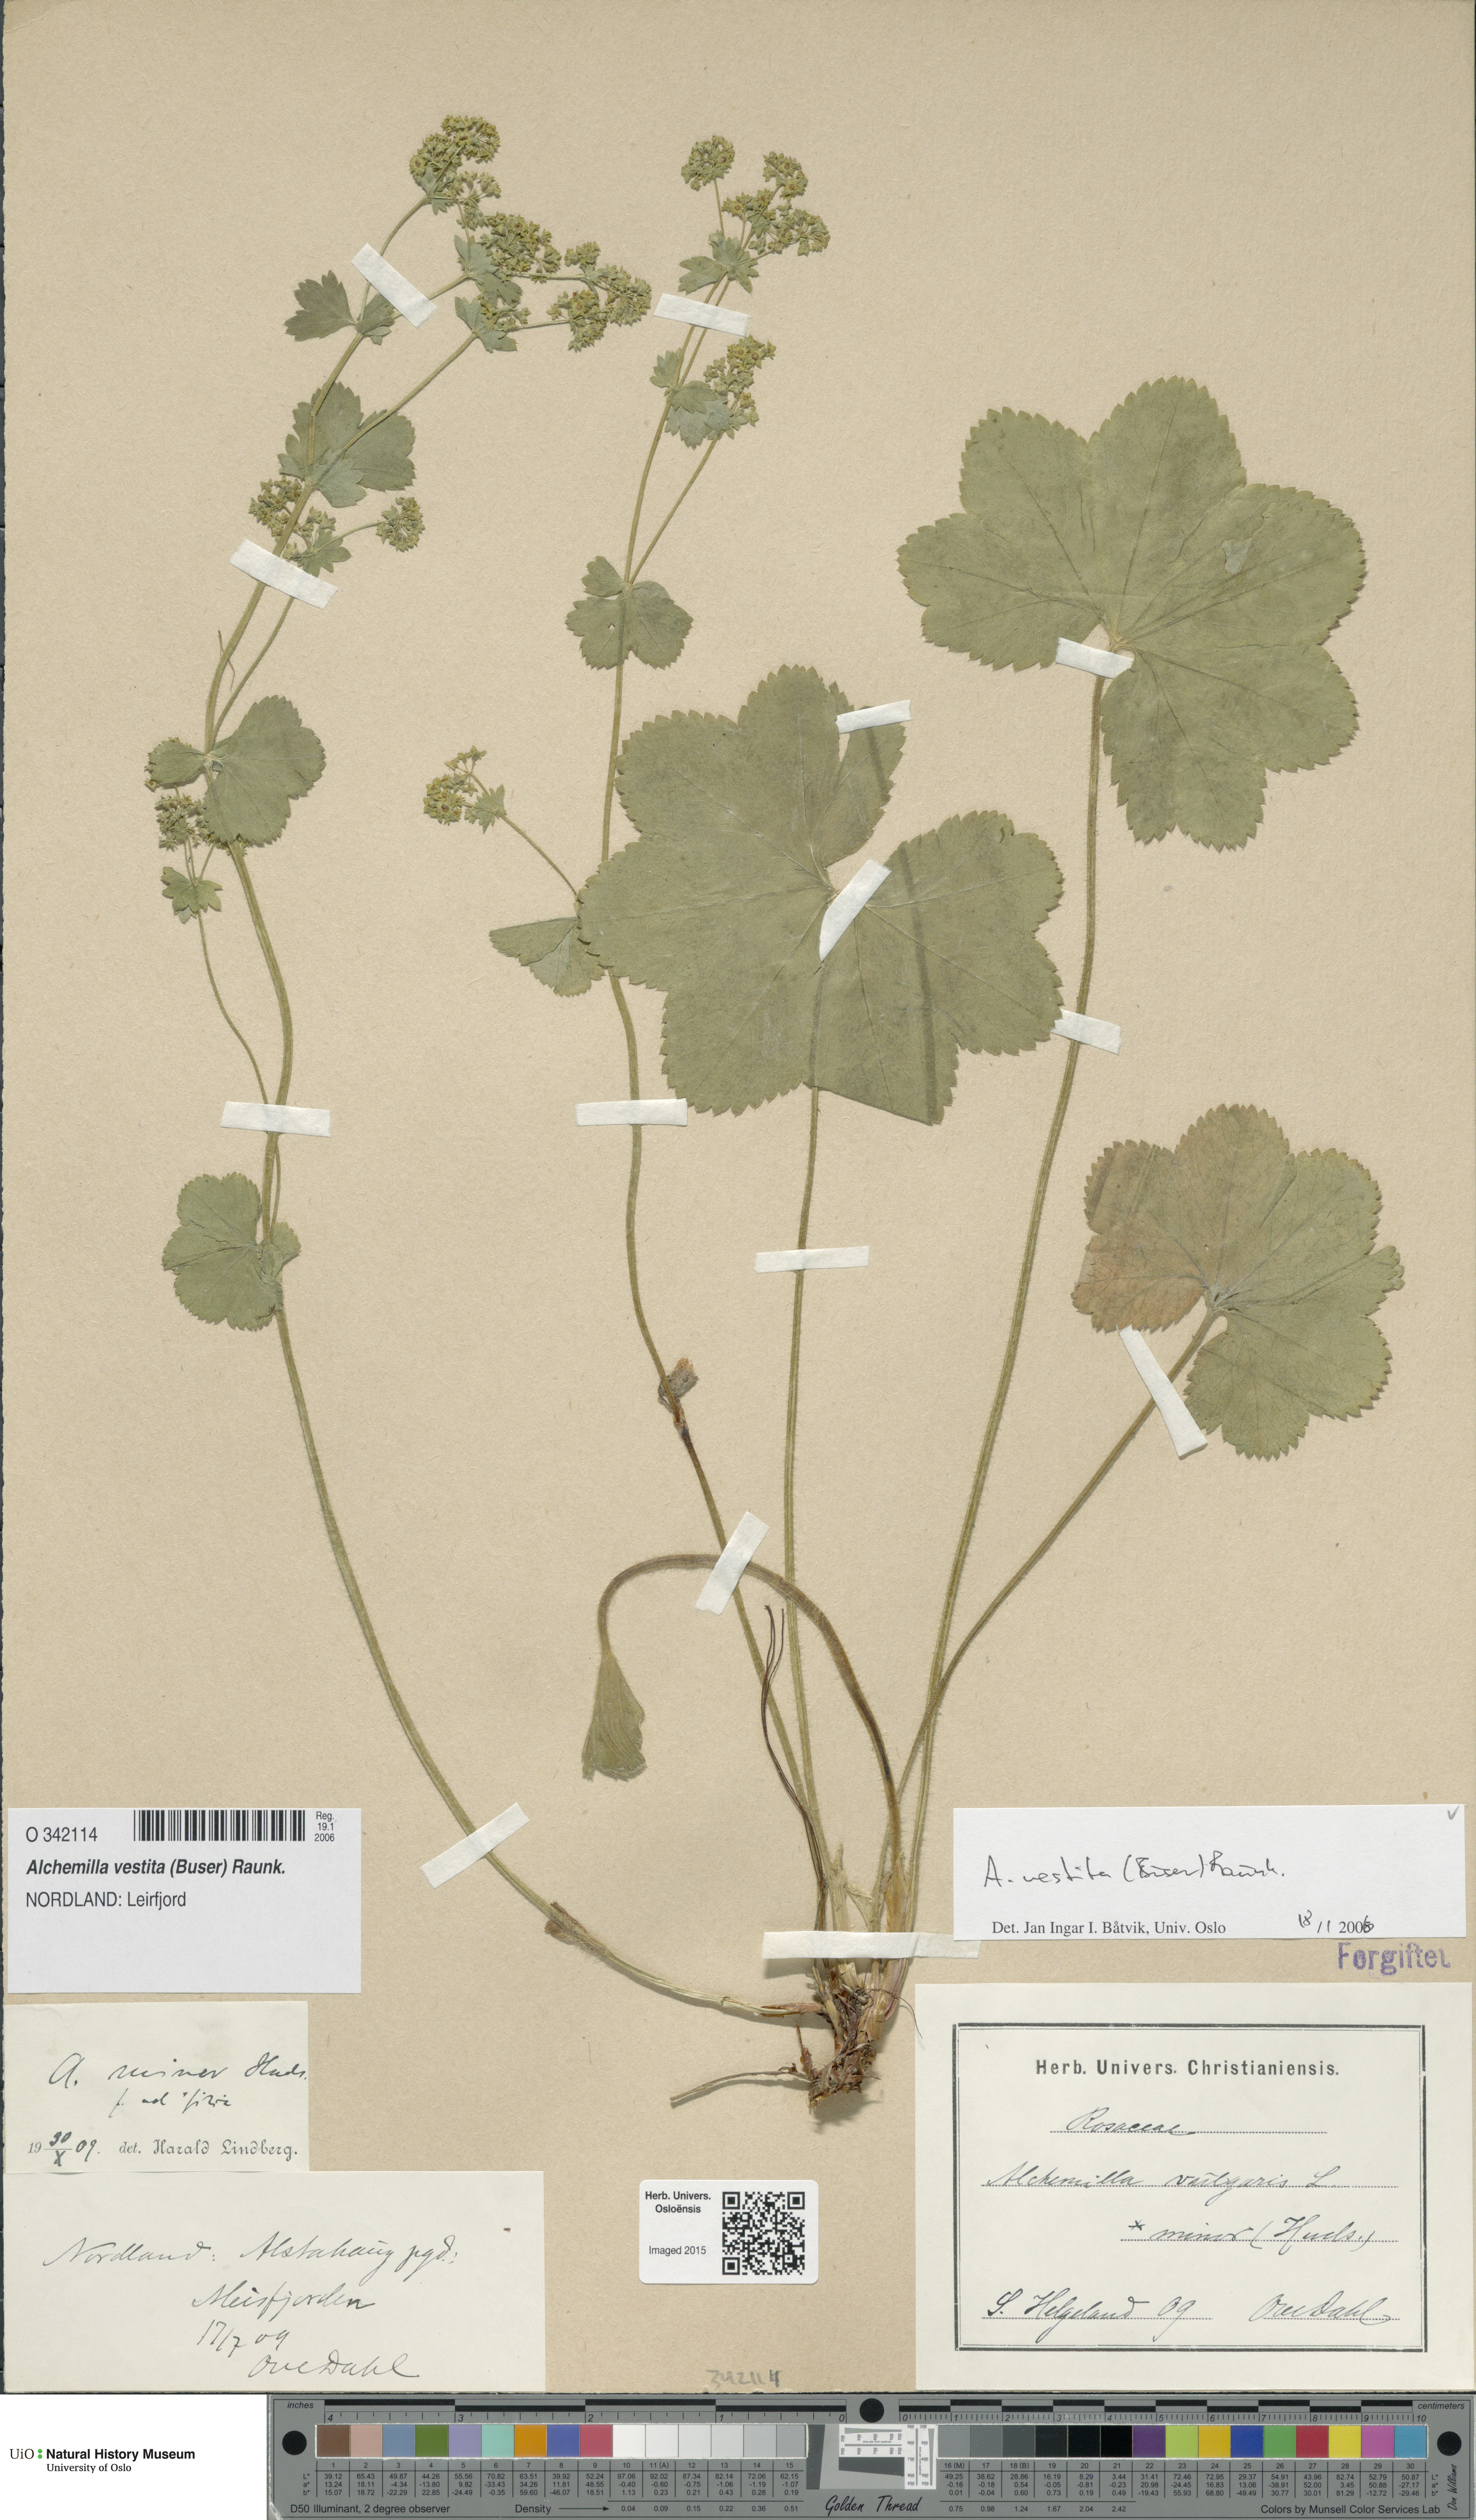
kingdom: Plantae
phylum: Tracheophyta
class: Magnoliopsida
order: Rosales
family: Rosaceae
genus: Alchemilla
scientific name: Alchemilla filicaulis
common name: Hairy lady's-mantle
